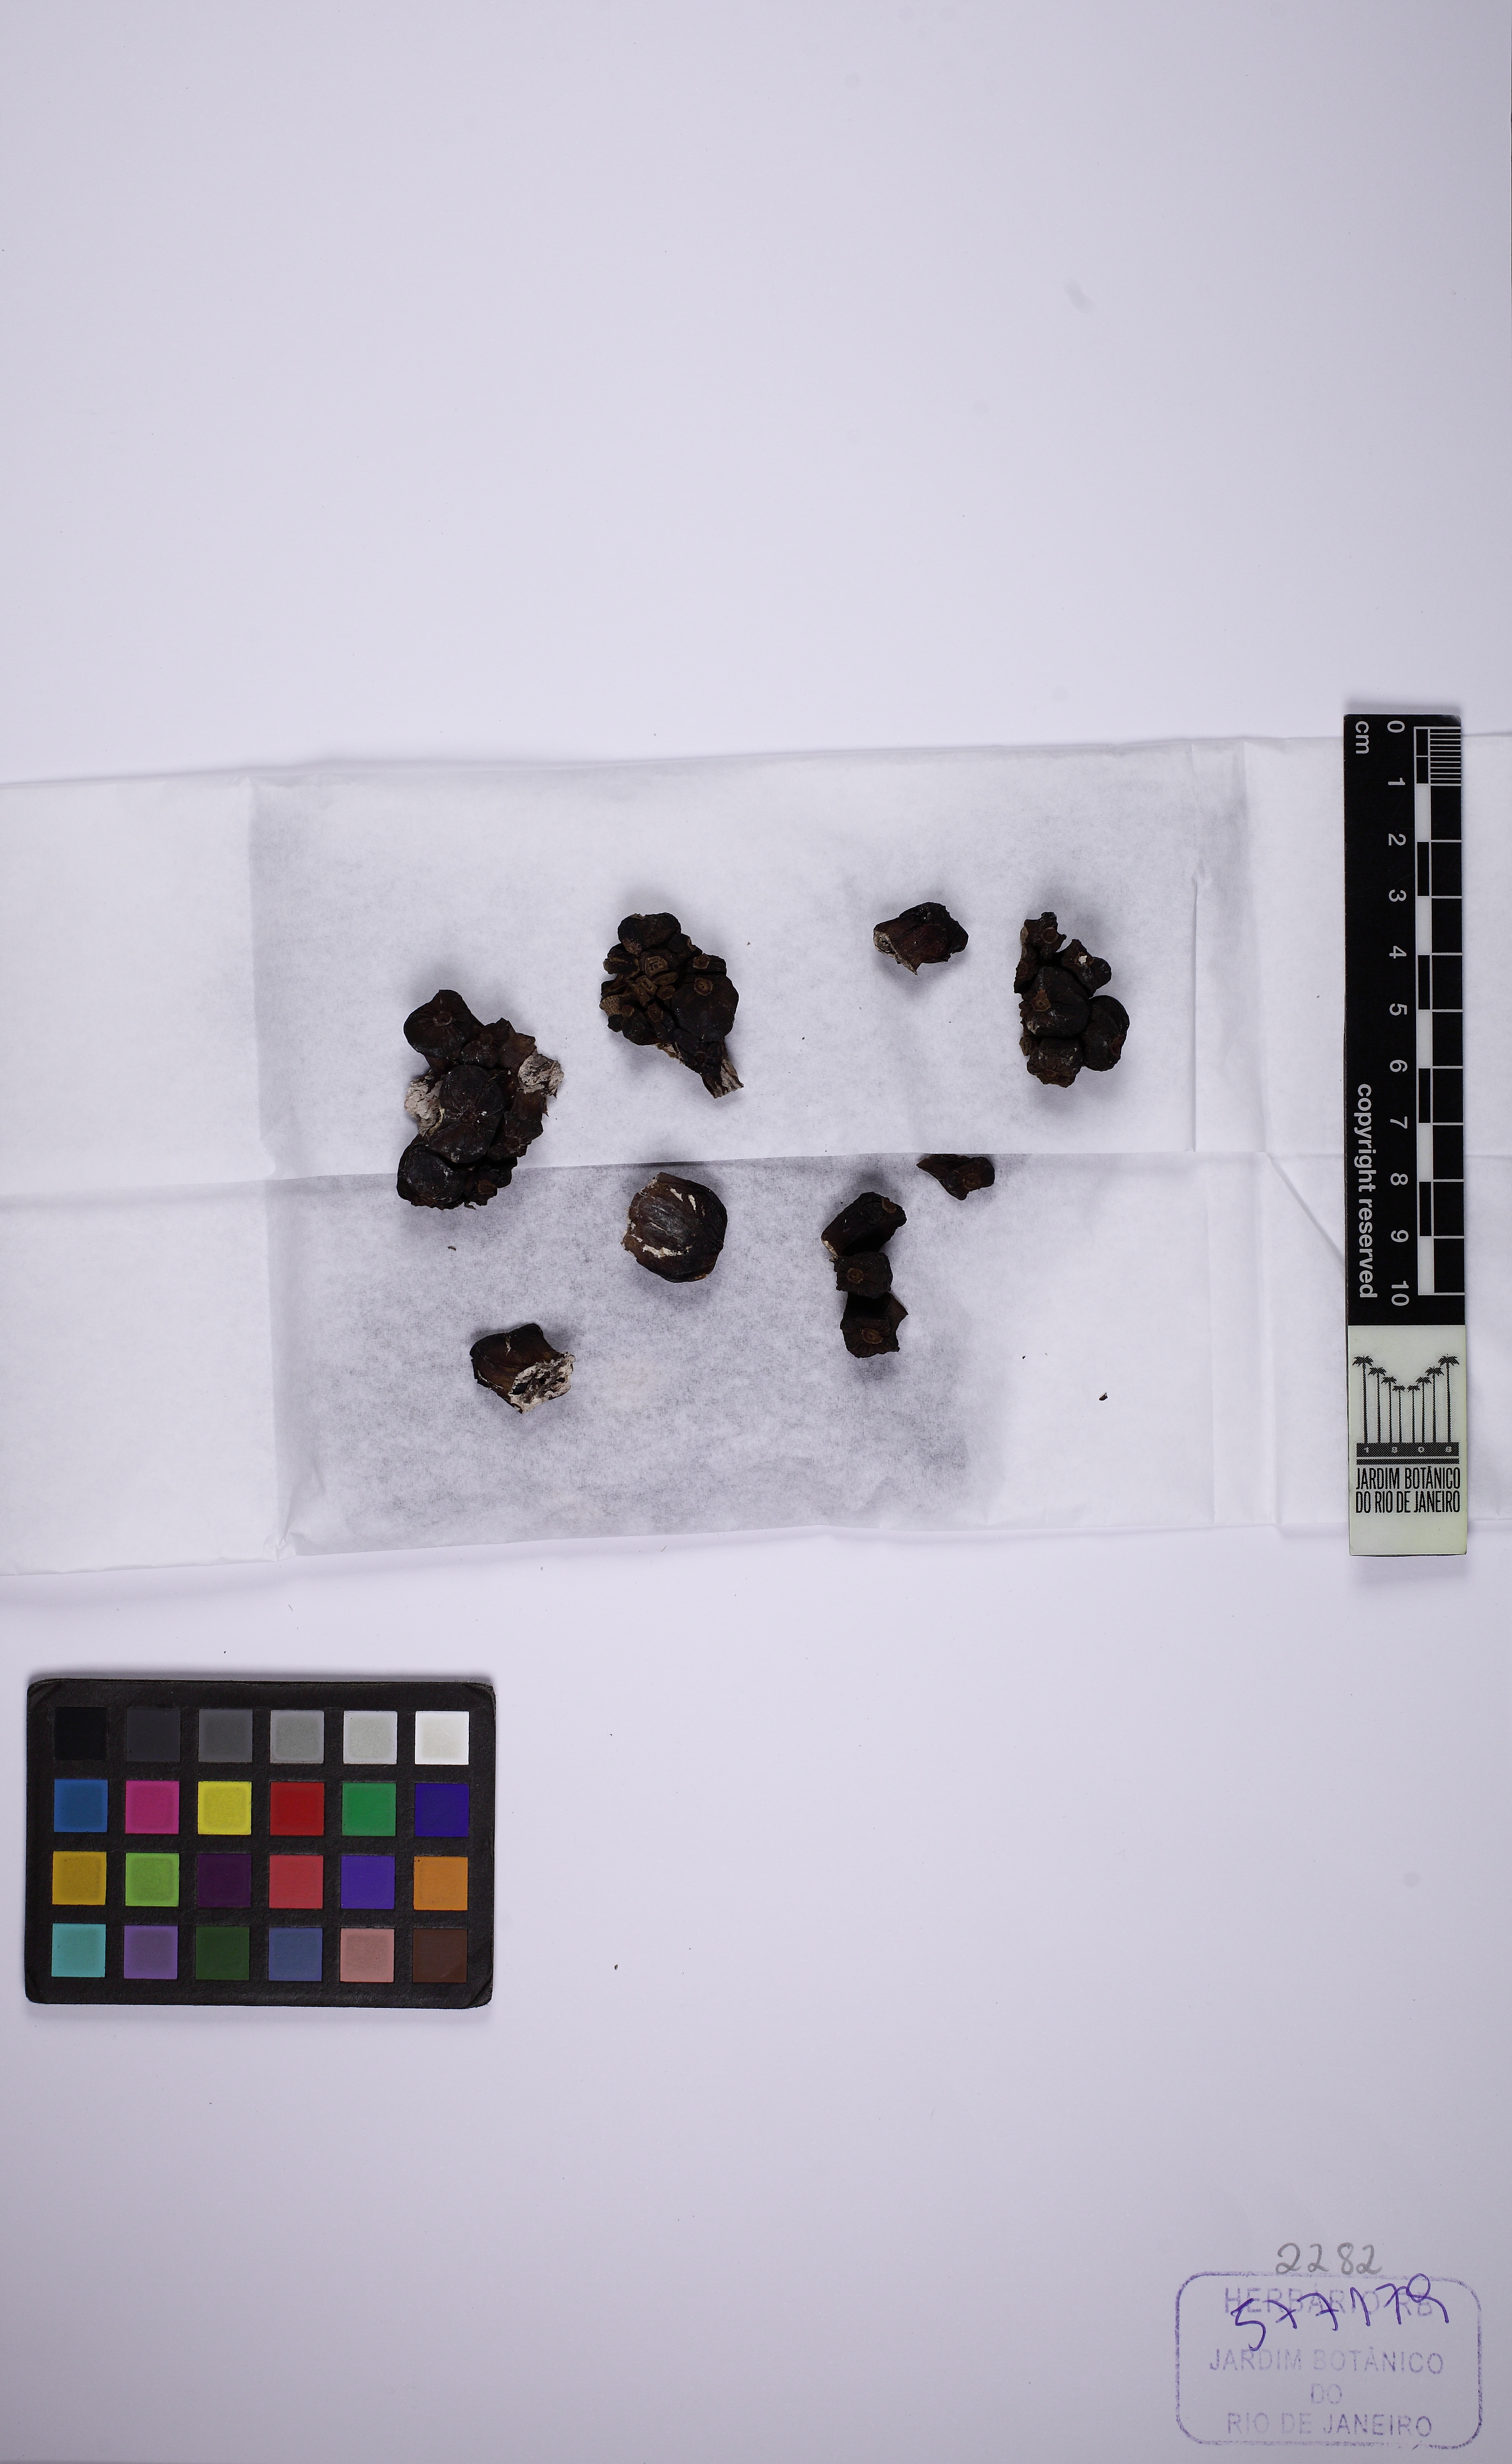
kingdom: Plantae
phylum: Tracheophyta
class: Liliopsida
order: Alismatales
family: Araceae
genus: Heteropsis
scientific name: Heteropsis oblongifolia
